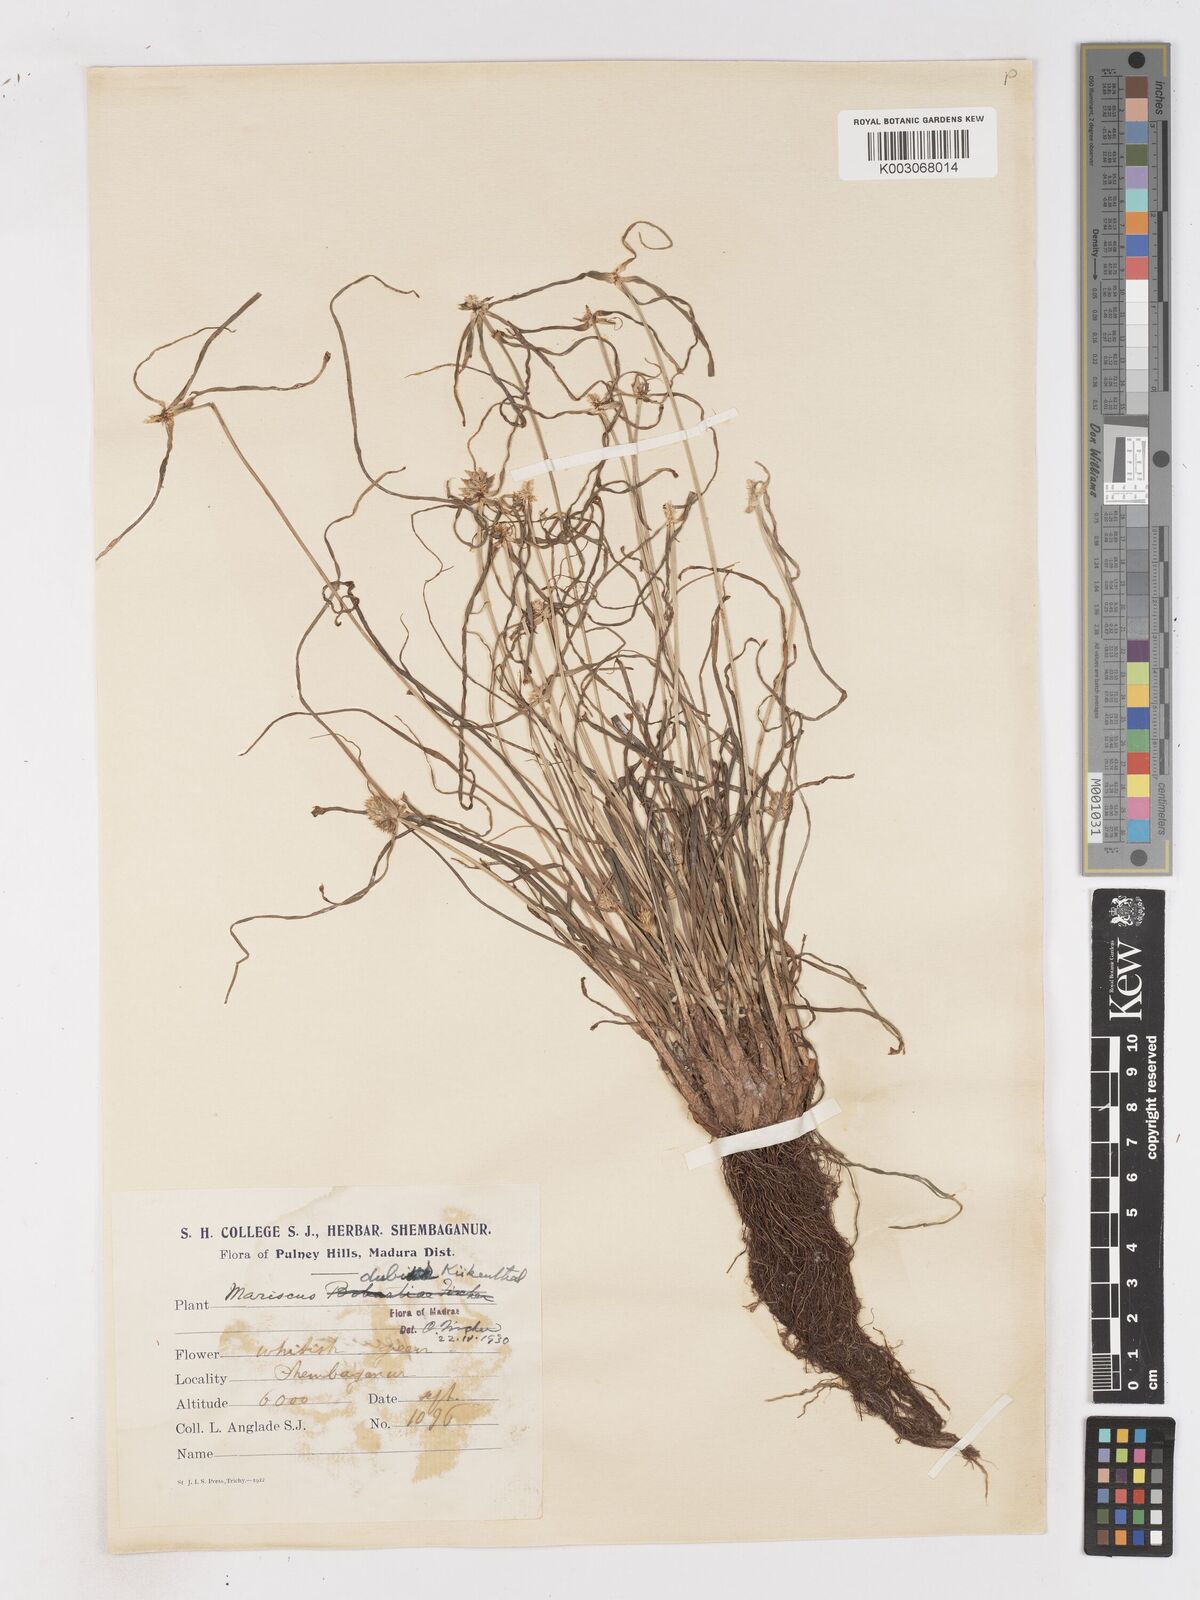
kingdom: Plantae
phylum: Tracheophyta
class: Liliopsida
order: Poales
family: Cyperaceae
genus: Cyperus
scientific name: Cyperus dubius
